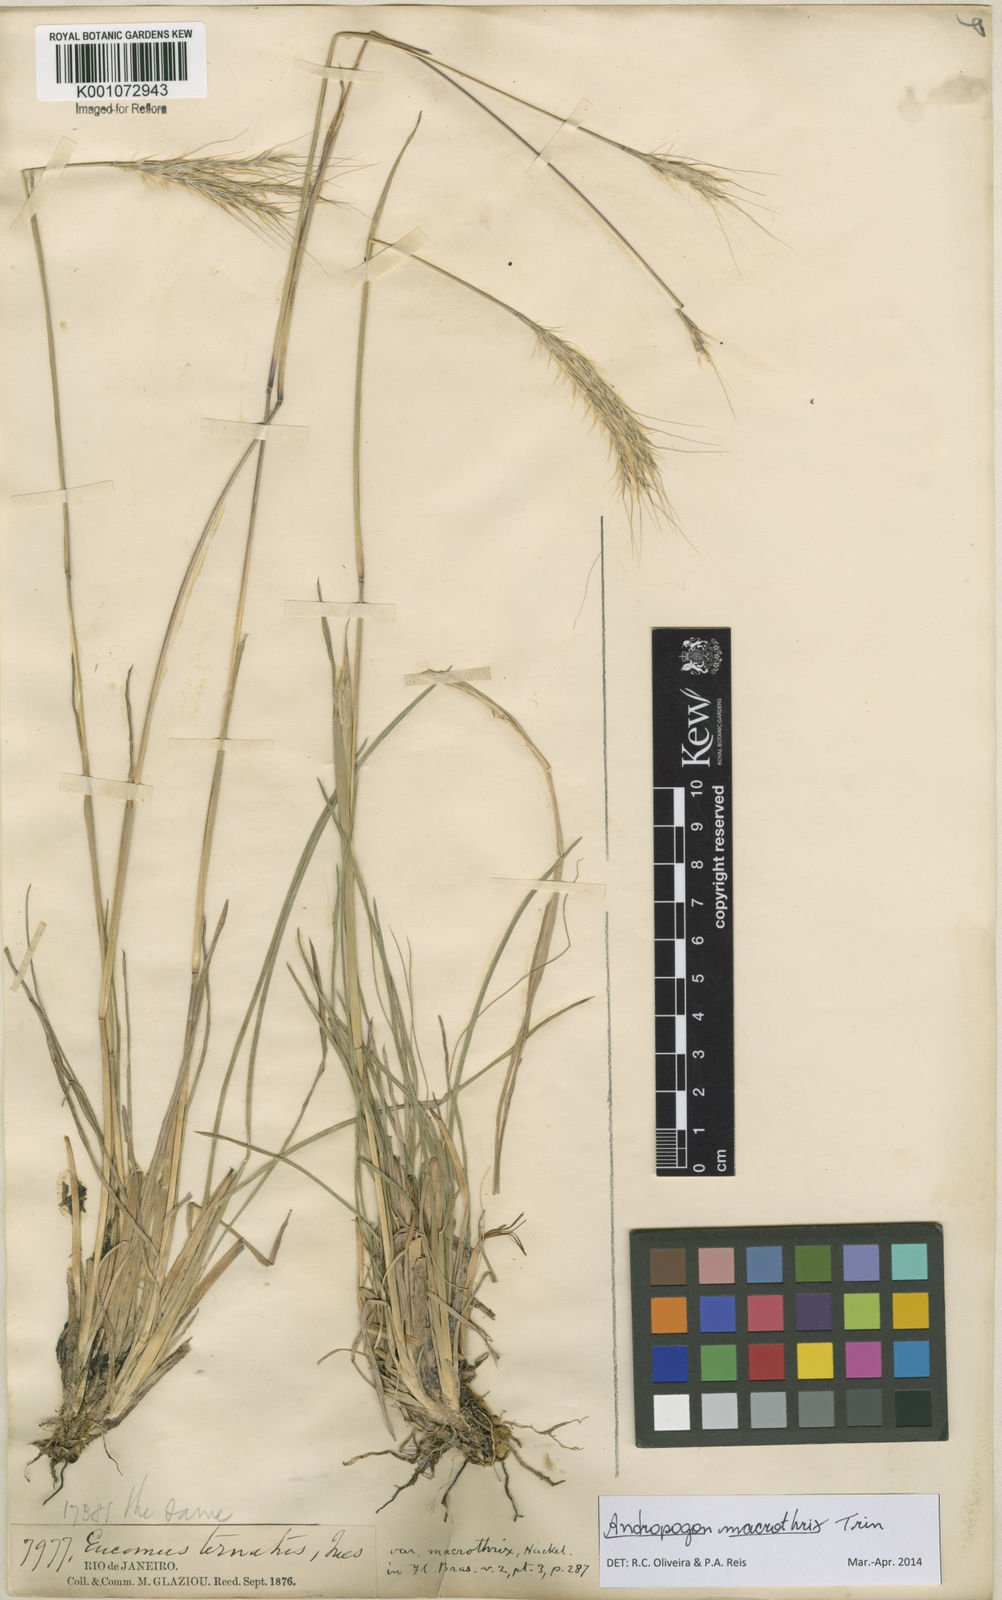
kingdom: Plantae
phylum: Tracheophyta
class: Liliopsida
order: Poales
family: Poaceae
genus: Andropogon
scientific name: Andropogon macrothrix
